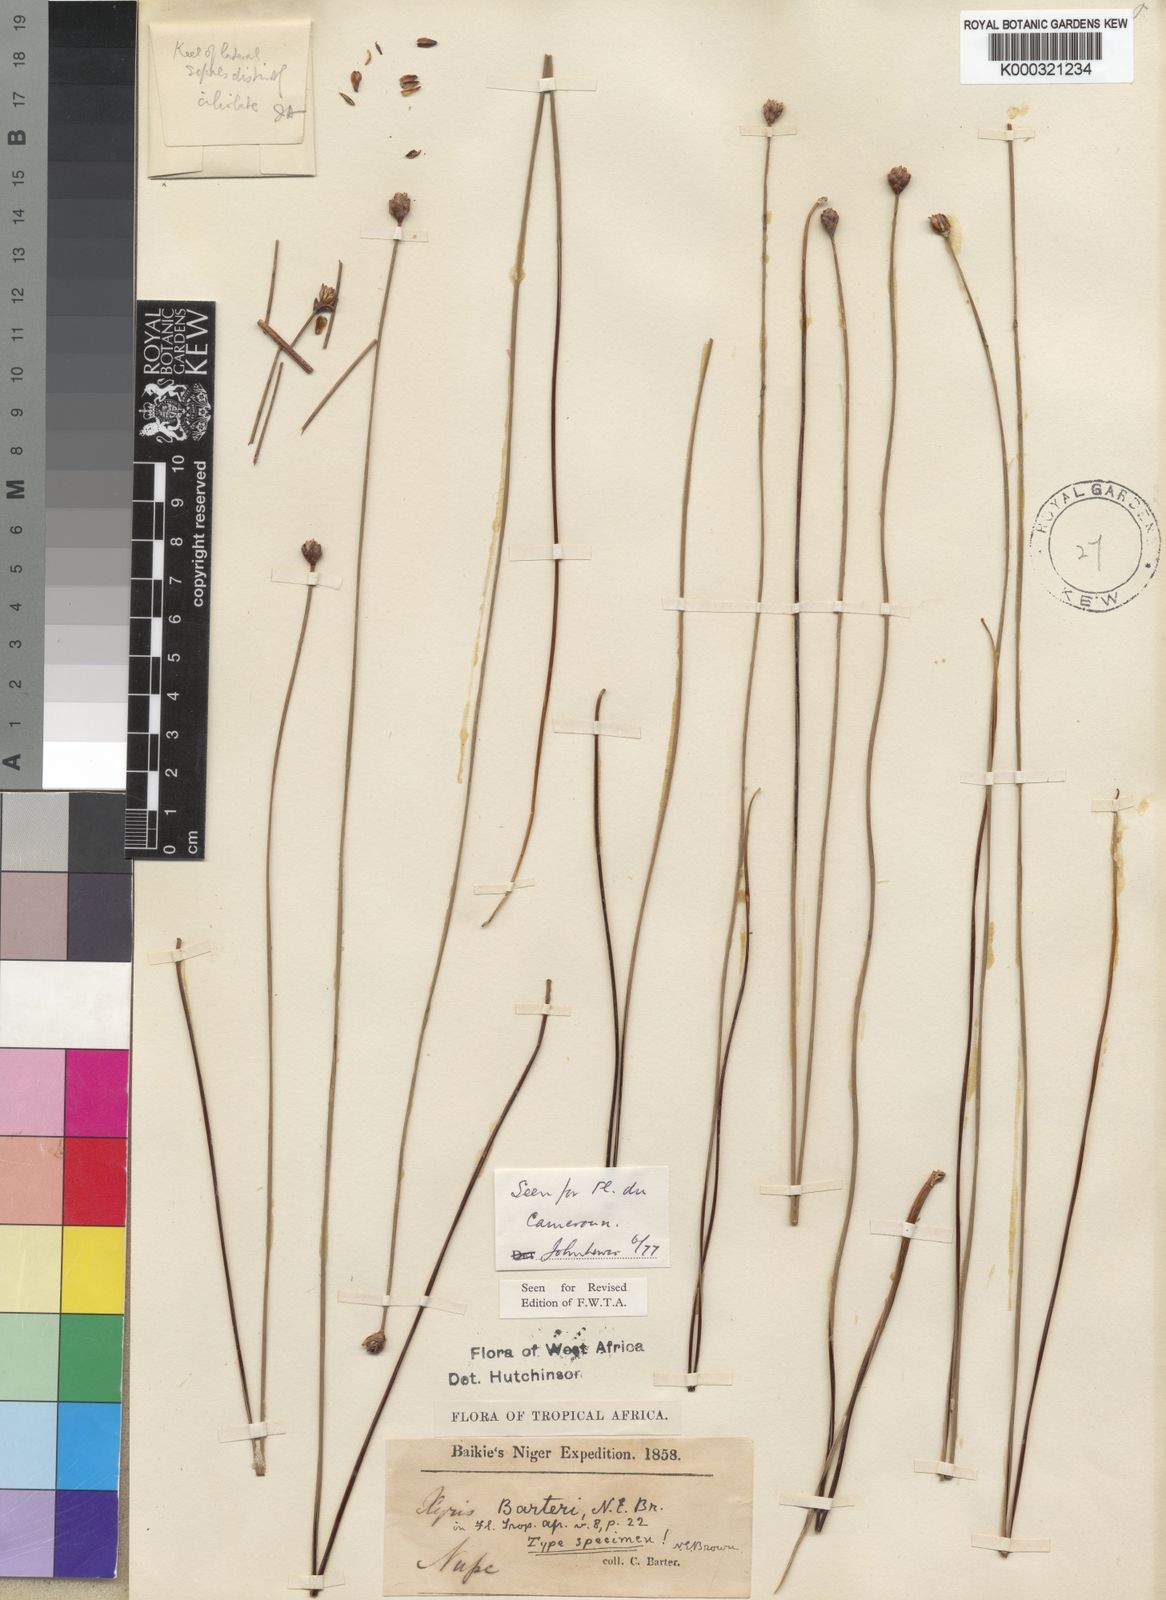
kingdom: Plantae
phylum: Tracheophyta
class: Liliopsida
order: Poales
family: Xyridaceae
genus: Xyris
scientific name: Xyris barteri
